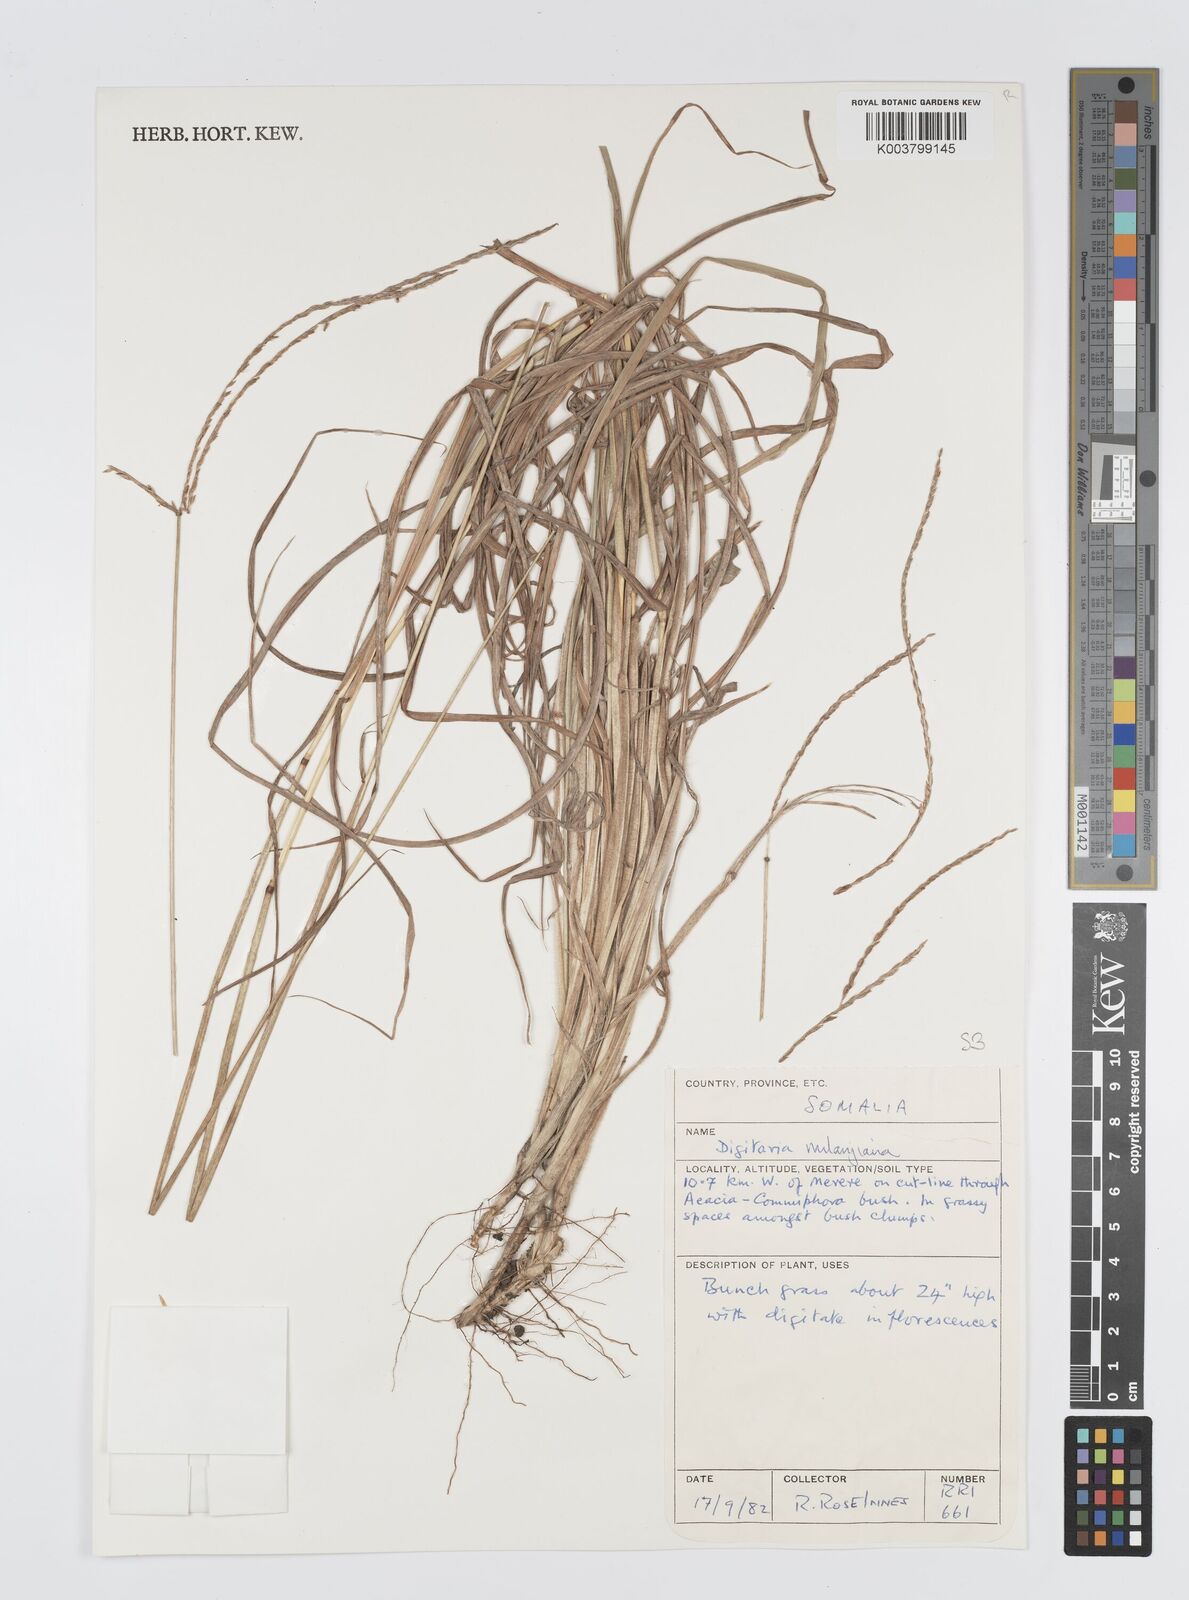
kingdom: Plantae
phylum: Tracheophyta
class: Liliopsida
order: Poales
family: Poaceae
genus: Digitaria
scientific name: Digitaria milanjiana
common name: Madagascar crabgrass
